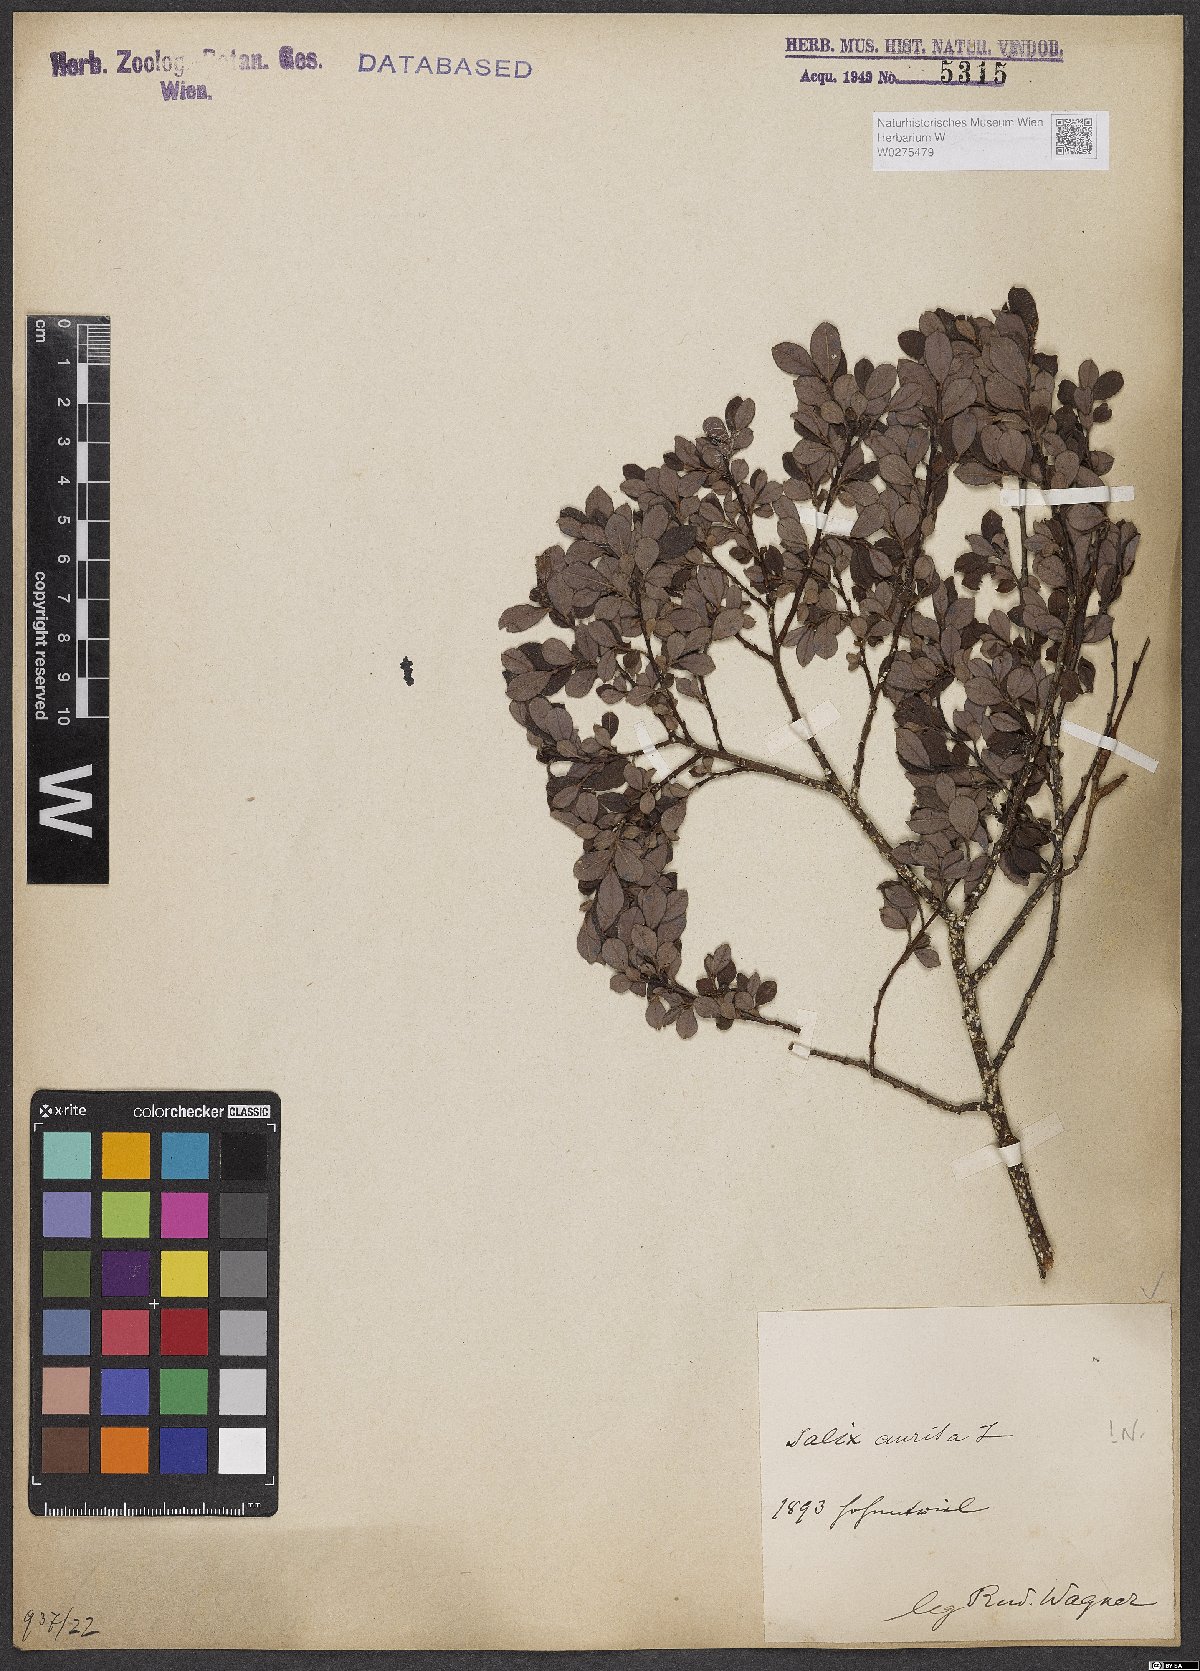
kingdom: Plantae
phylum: Tracheophyta
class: Magnoliopsida
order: Malpighiales
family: Salicaceae
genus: Salix
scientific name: Salix aurita
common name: Eared willow
